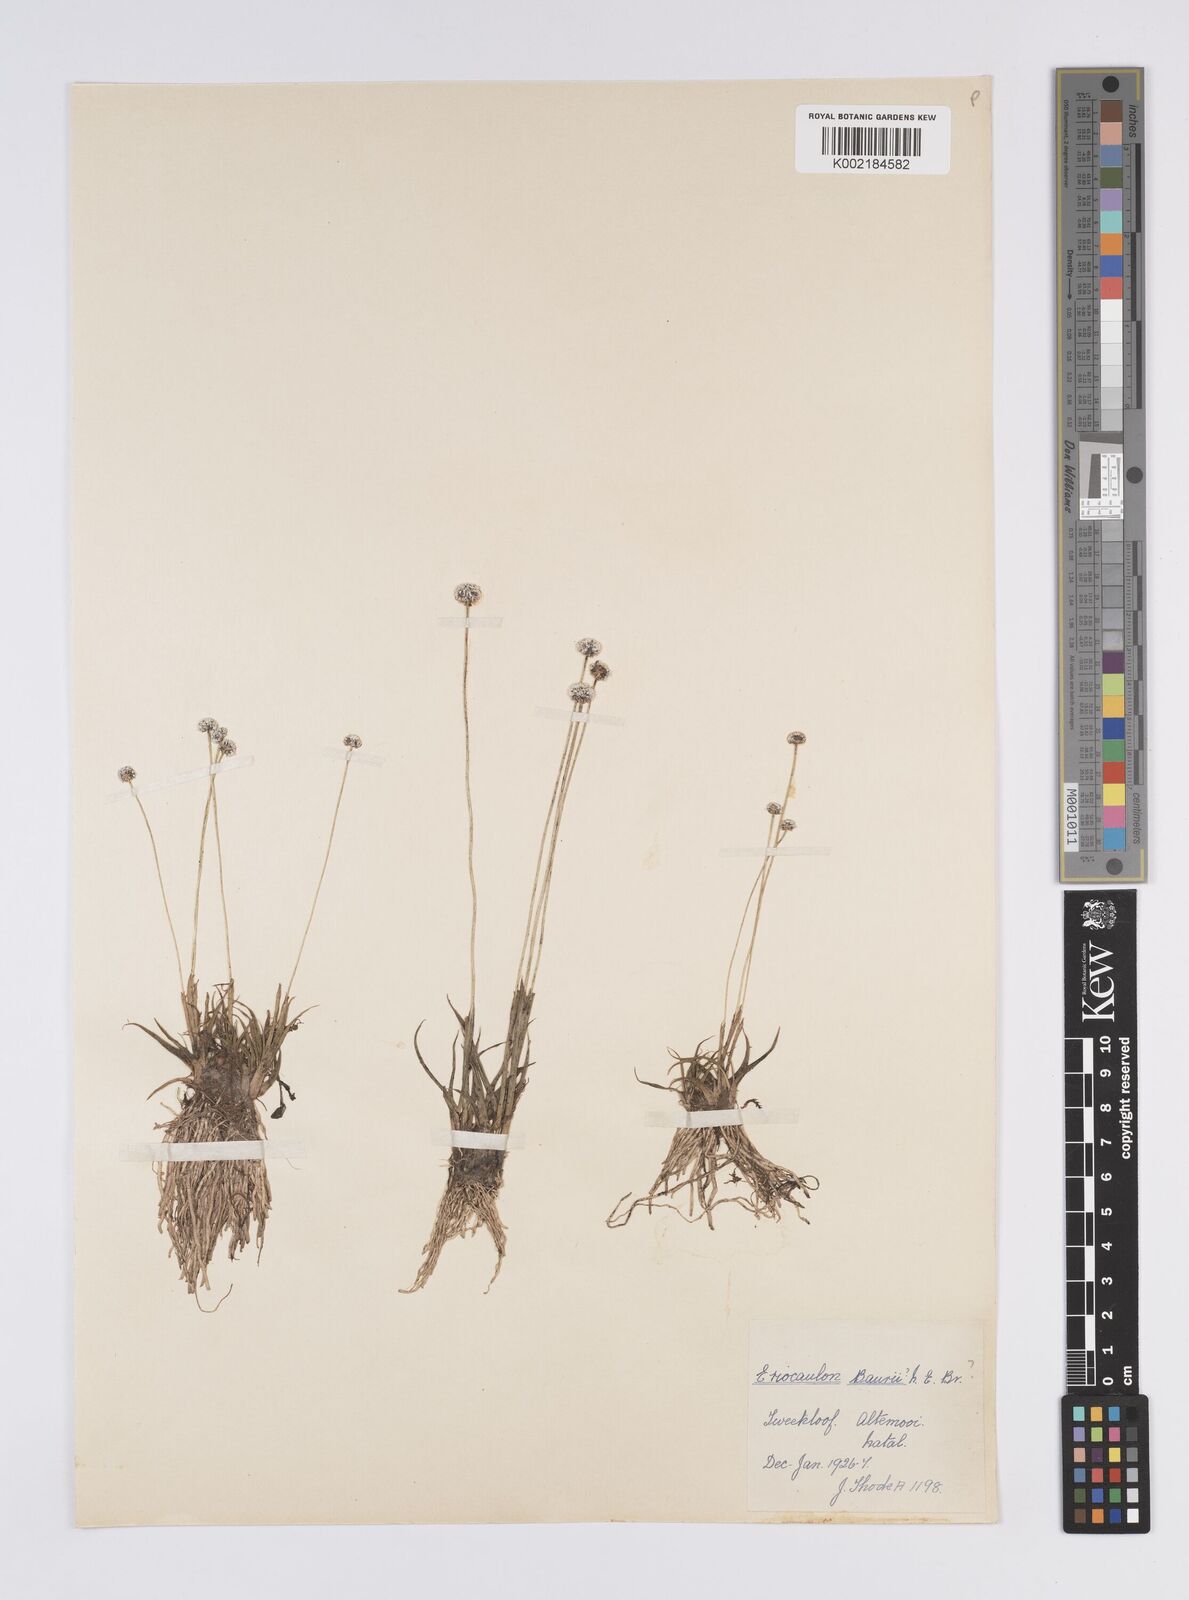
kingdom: Plantae
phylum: Tracheophyta
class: Liliopsida
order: Poales
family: Eriocaulaceae
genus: Eriocaulon
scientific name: Eriocaulon sonderianum
